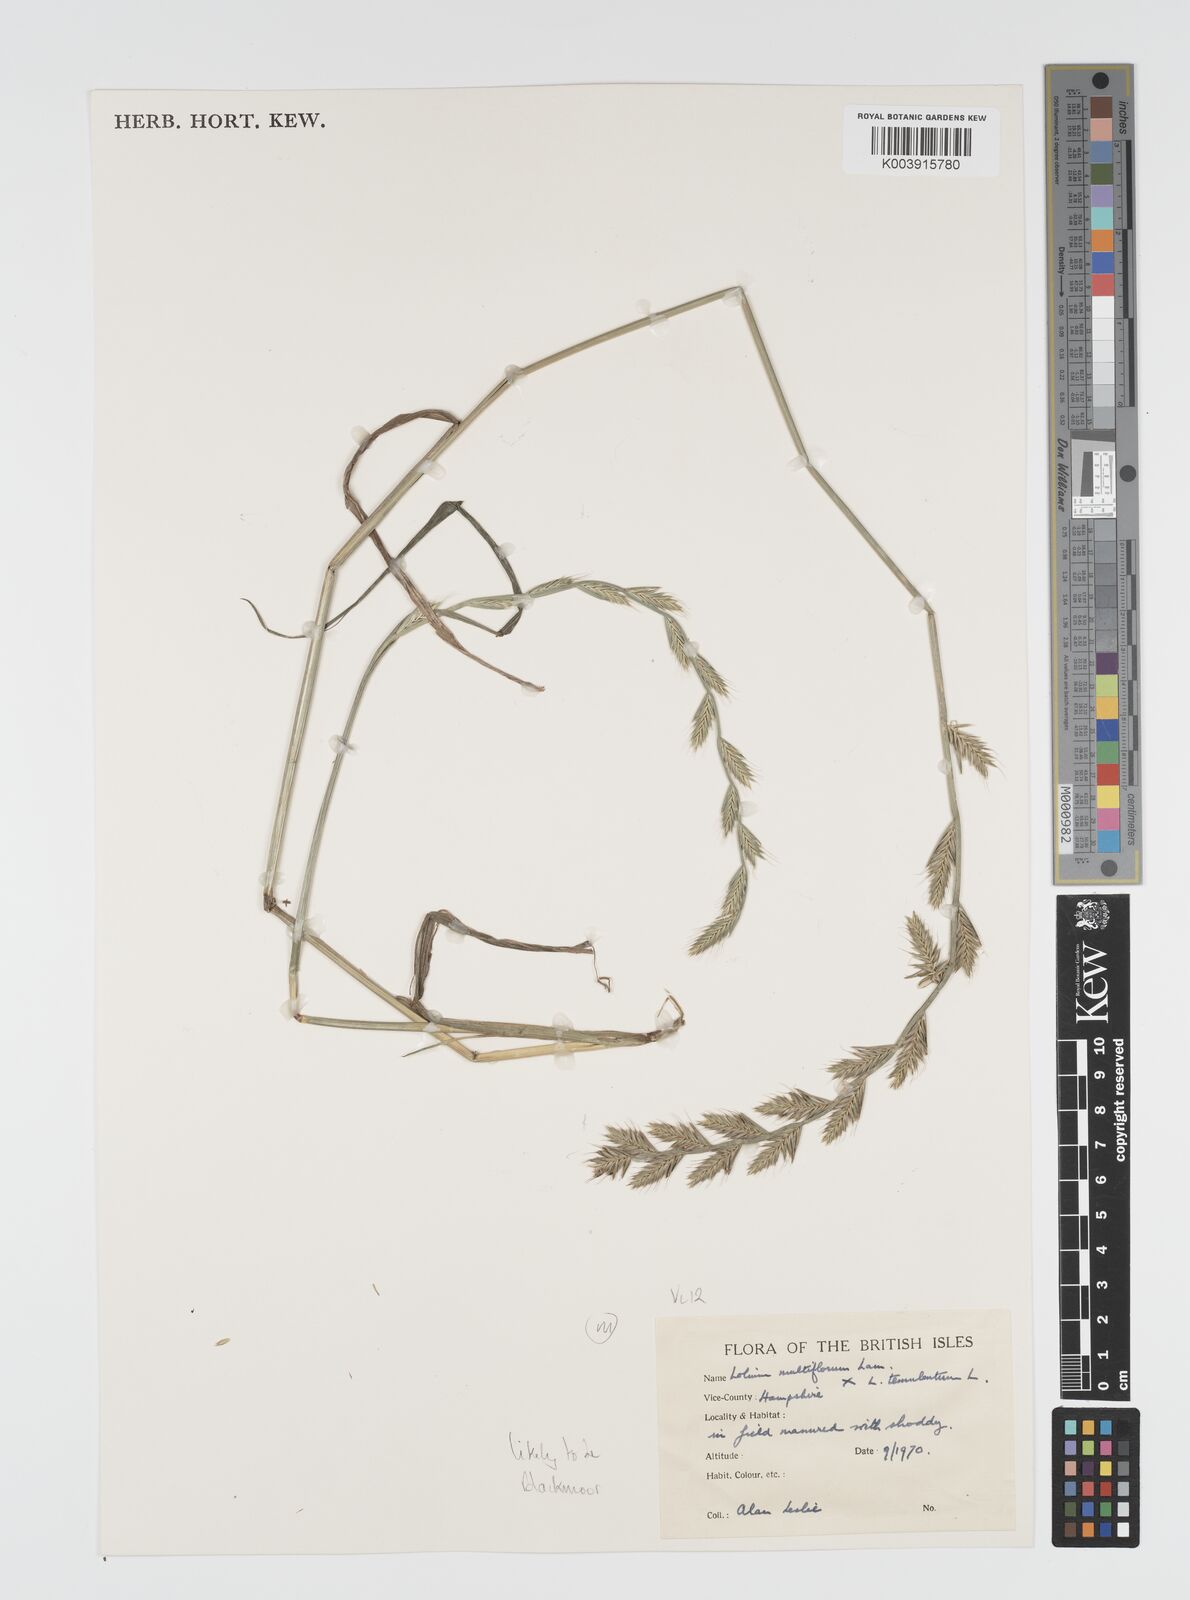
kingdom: Plantae
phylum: Tracheophyta
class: Liliopsida
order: Poales
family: Poaceae
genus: Lolium
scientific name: Lolium multiflorum
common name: Annual ryegrass
